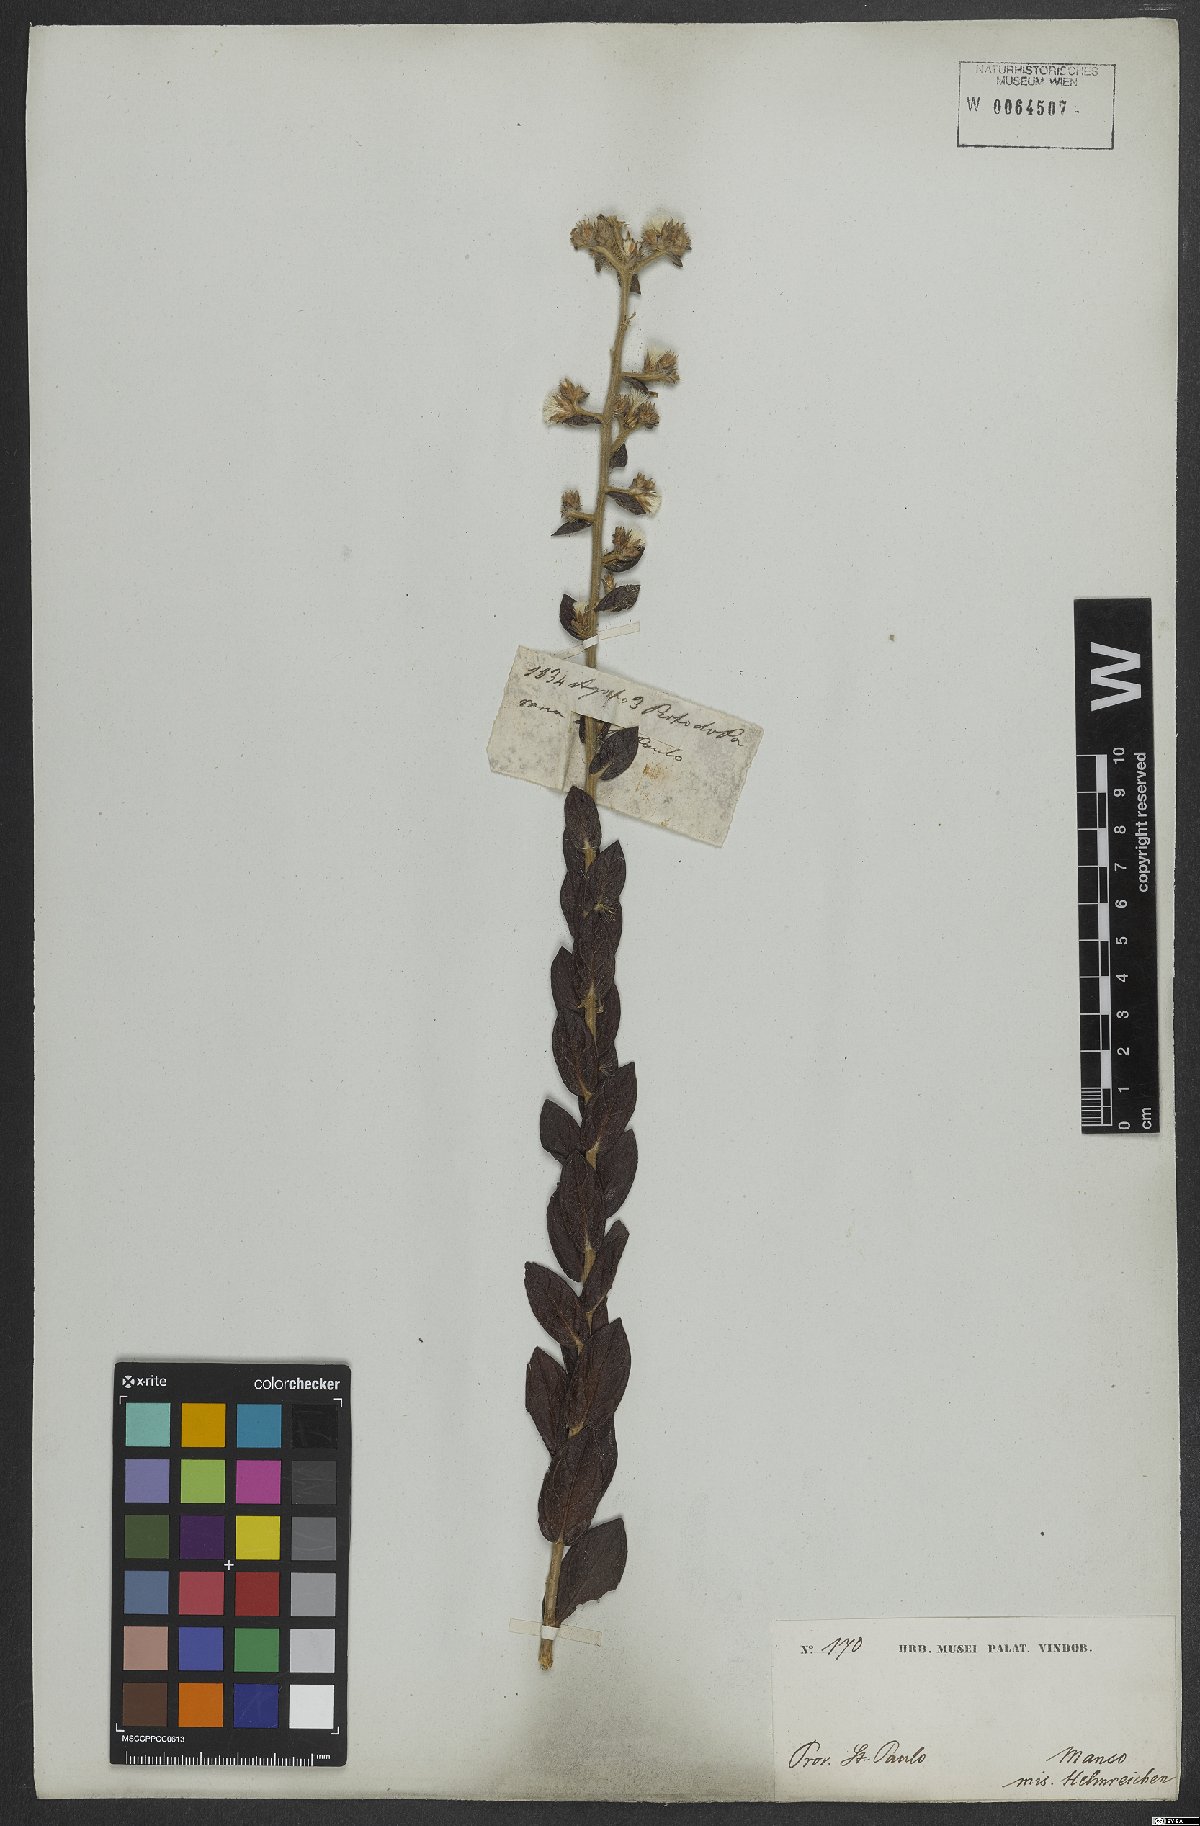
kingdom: Plantae
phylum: Tracheophyta
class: Magnoliopsida
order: Asterales
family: Asteraceae
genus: Lepidaploa
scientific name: Lepidaploa barbata
